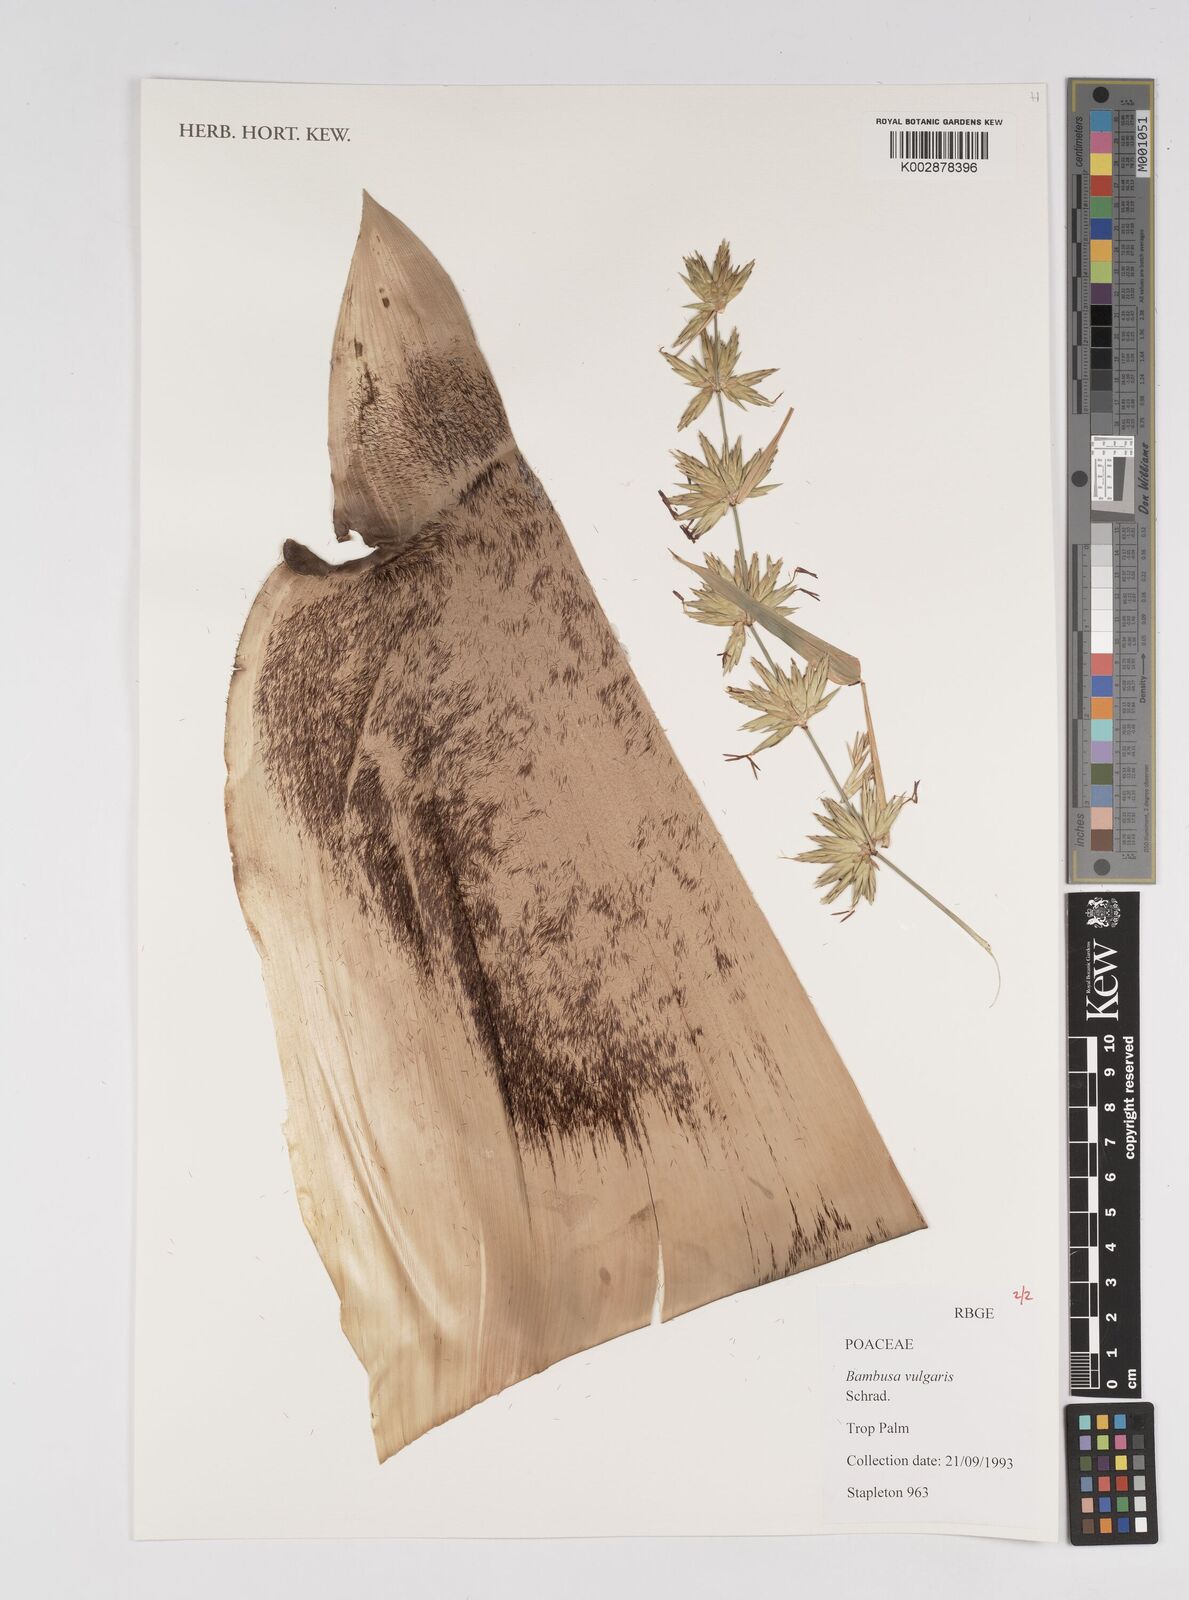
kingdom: Plantae
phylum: Tracheophyta
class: Liliopsida
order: Poales
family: Poaceae
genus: Bambusa
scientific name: Bambusa
